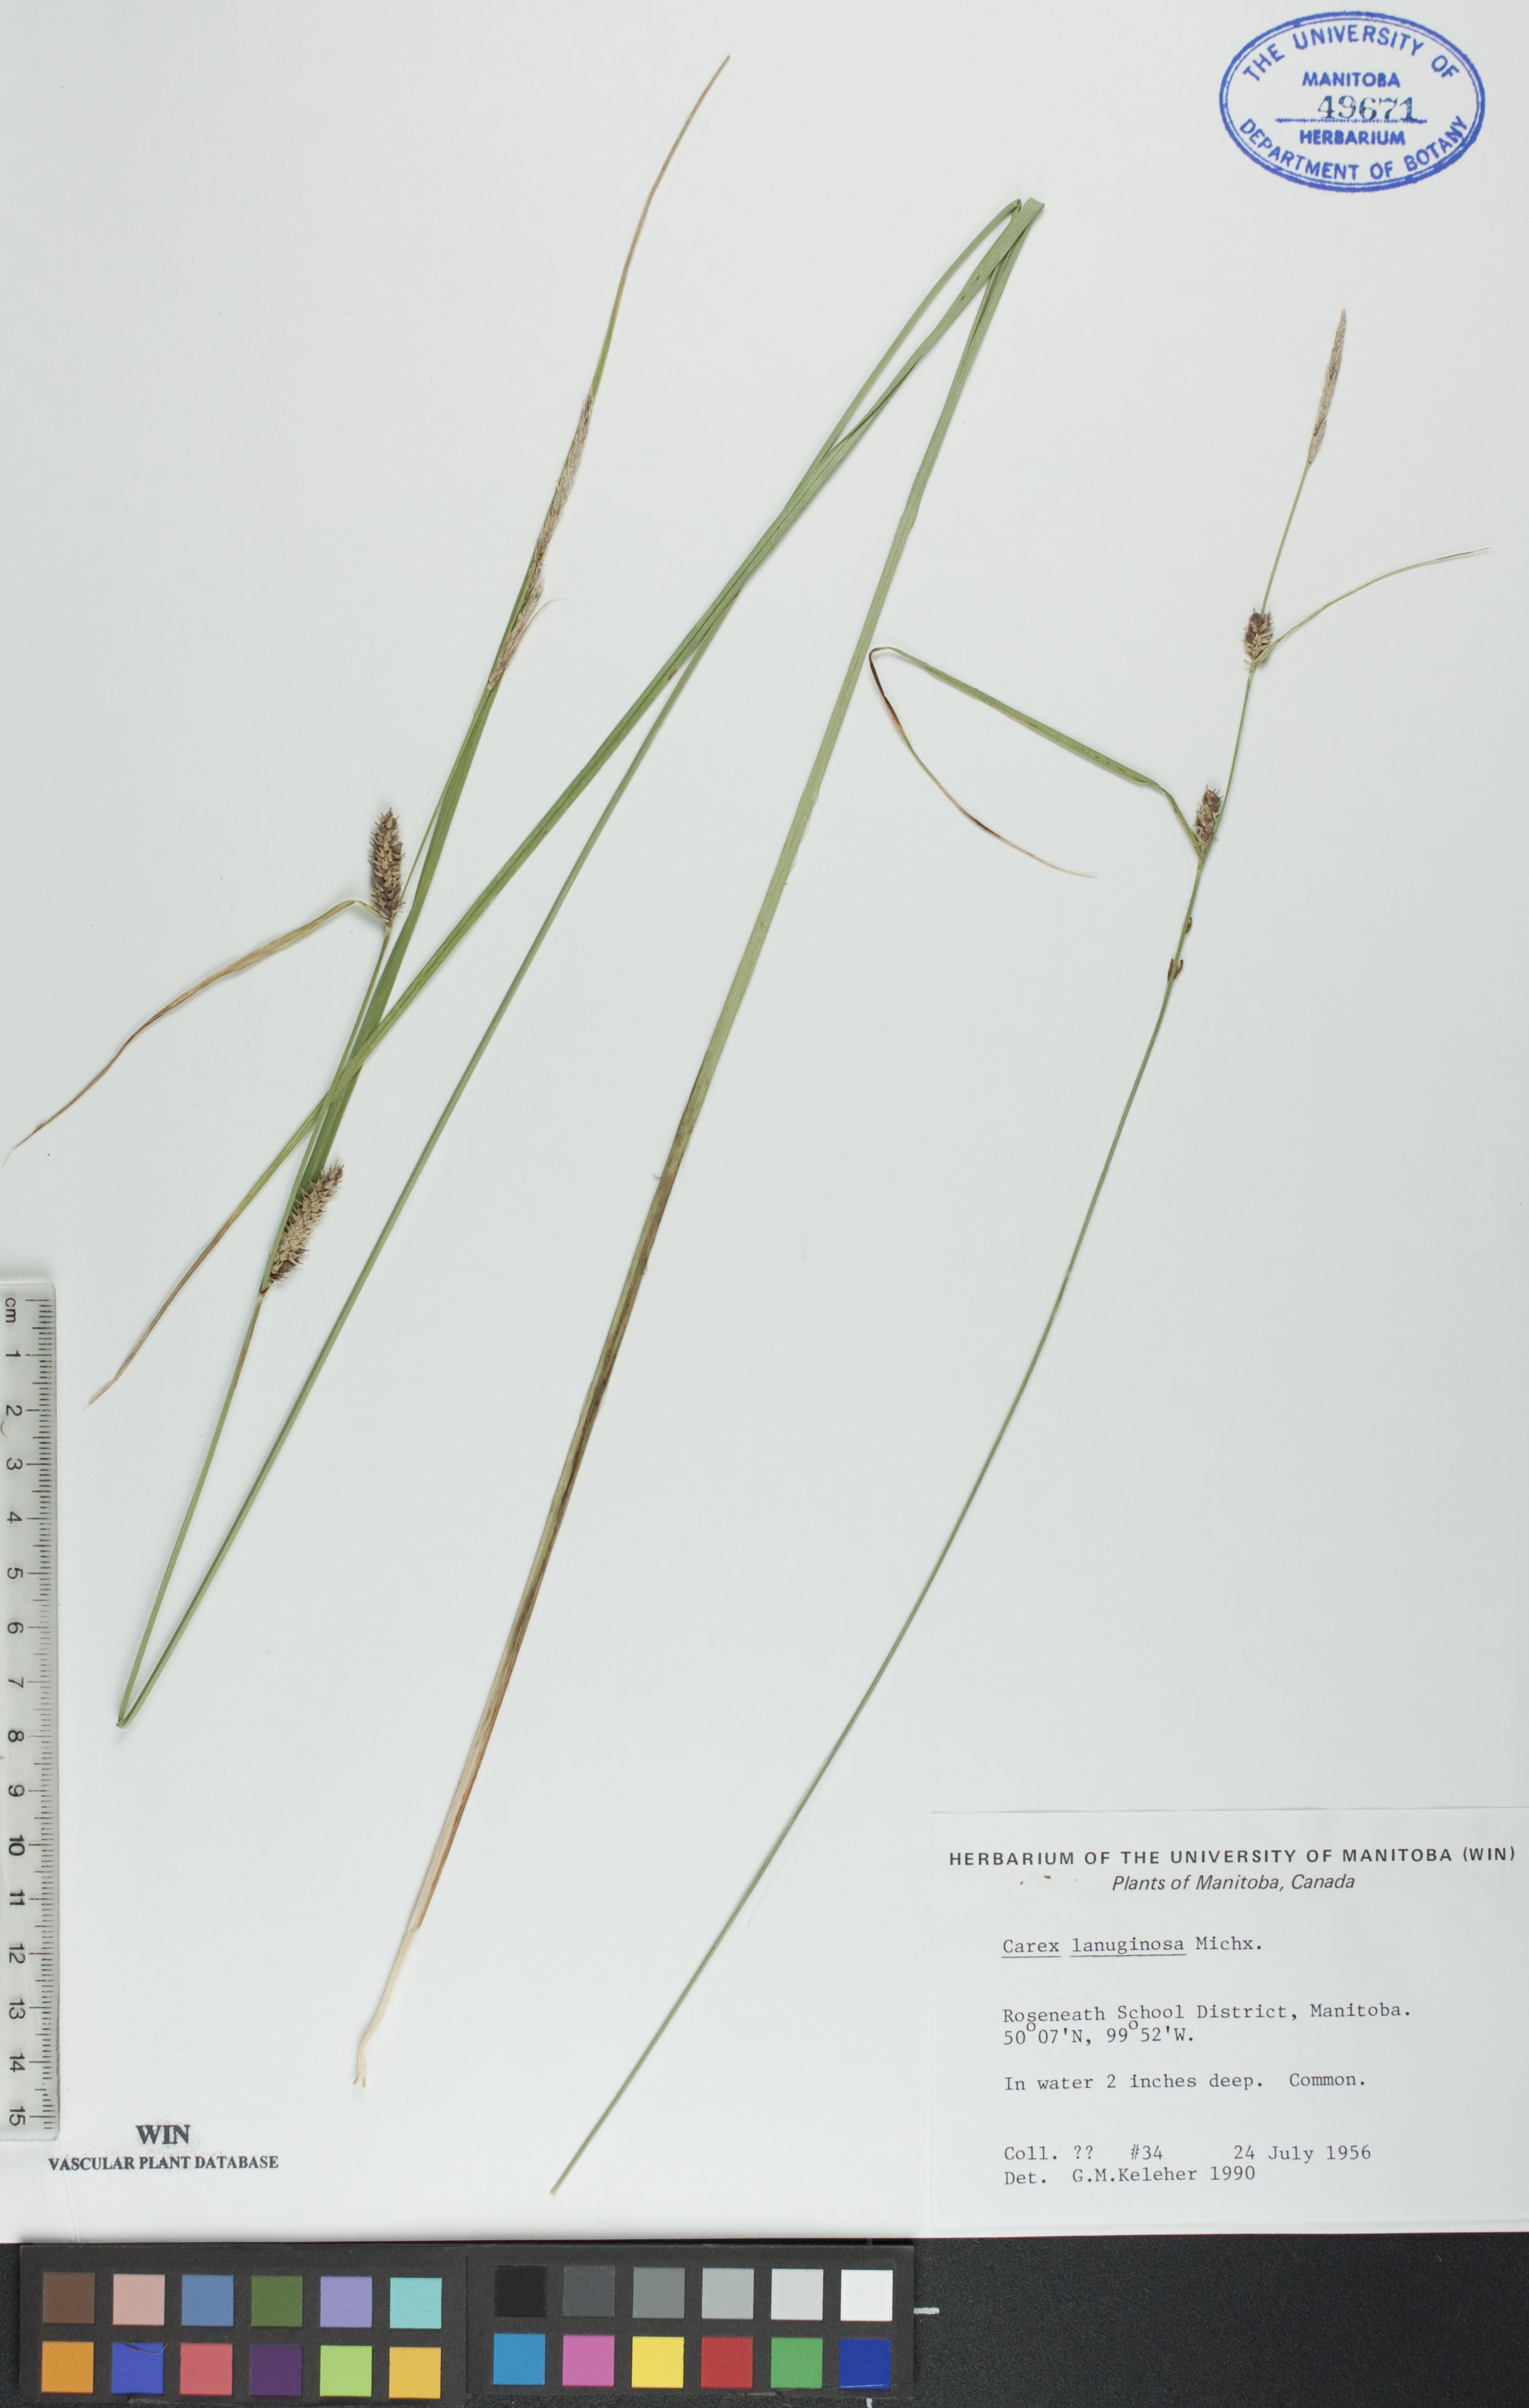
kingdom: Plantae
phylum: Tracheophyta
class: Liliopsida
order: Poales
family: Cyperaceae
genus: Carex
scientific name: Carex lasiocarpa
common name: Slender sedge
